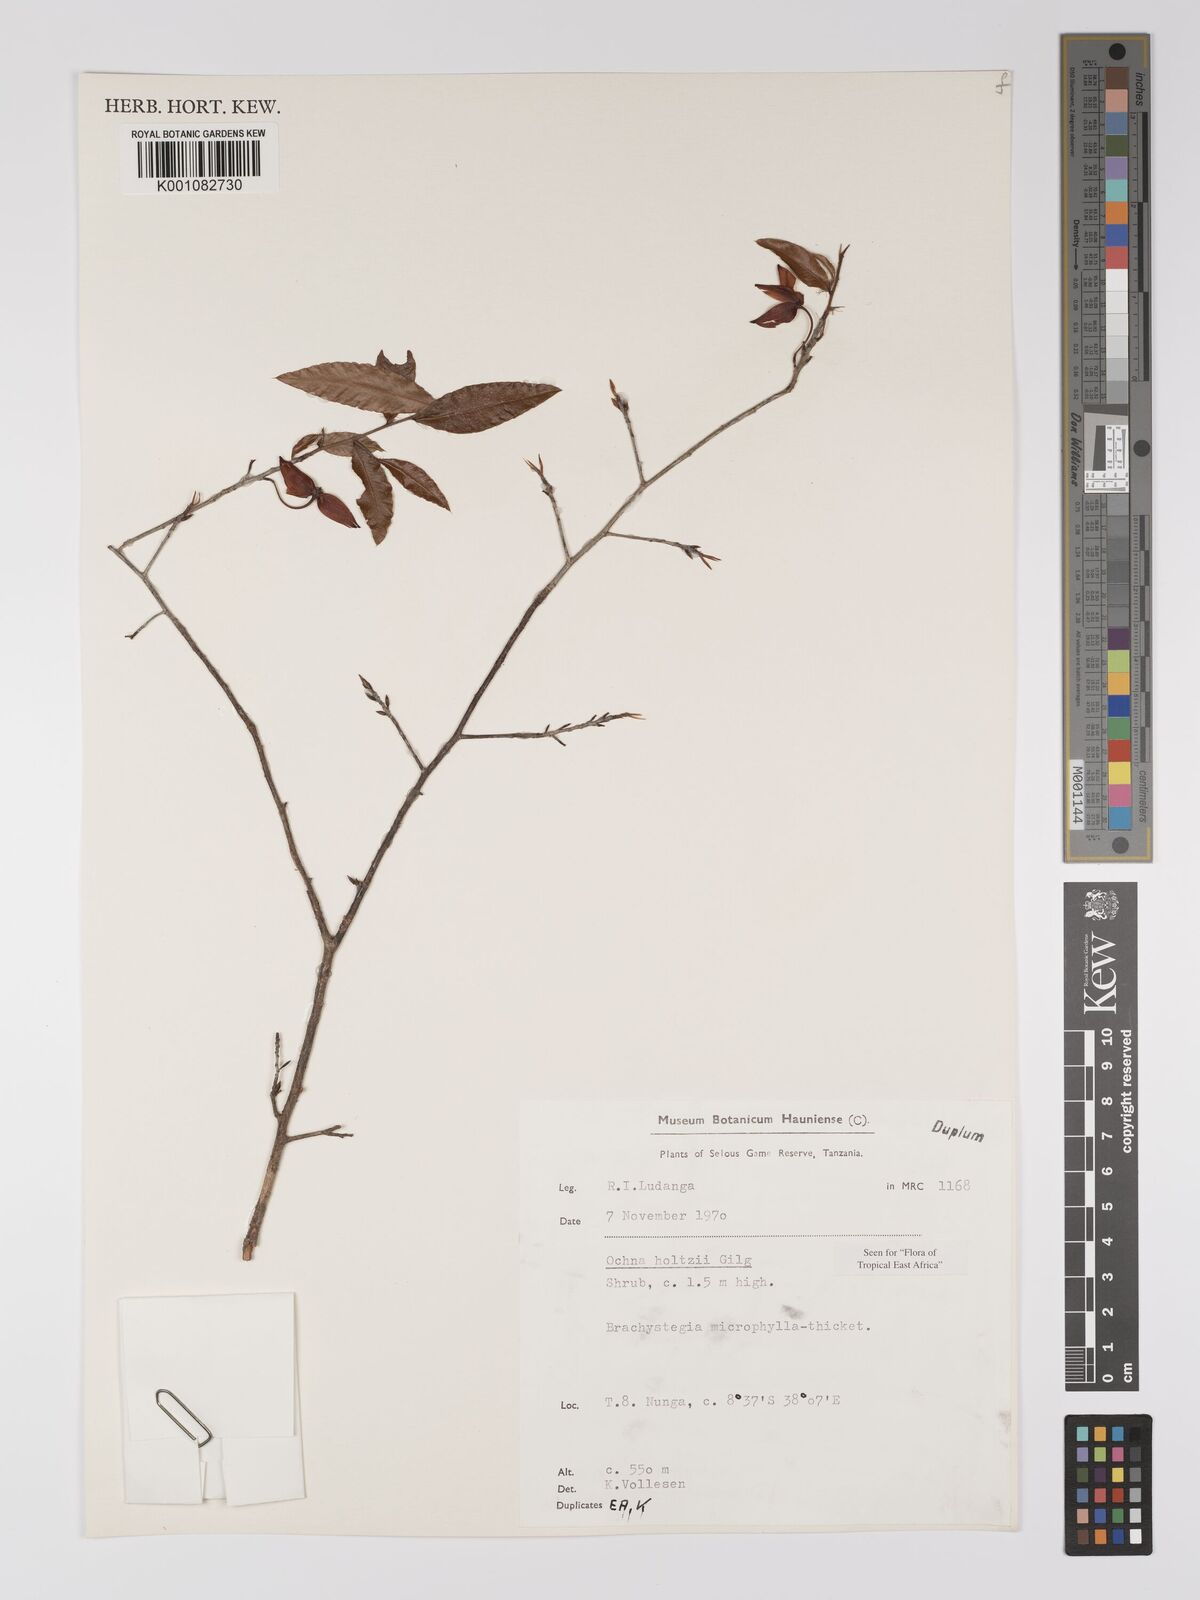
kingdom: Plantae
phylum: Tracheophyta
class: Magnoliopsida
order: Malpighiales
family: Ochnaceae
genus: Ochna
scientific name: Ochna holtzii
